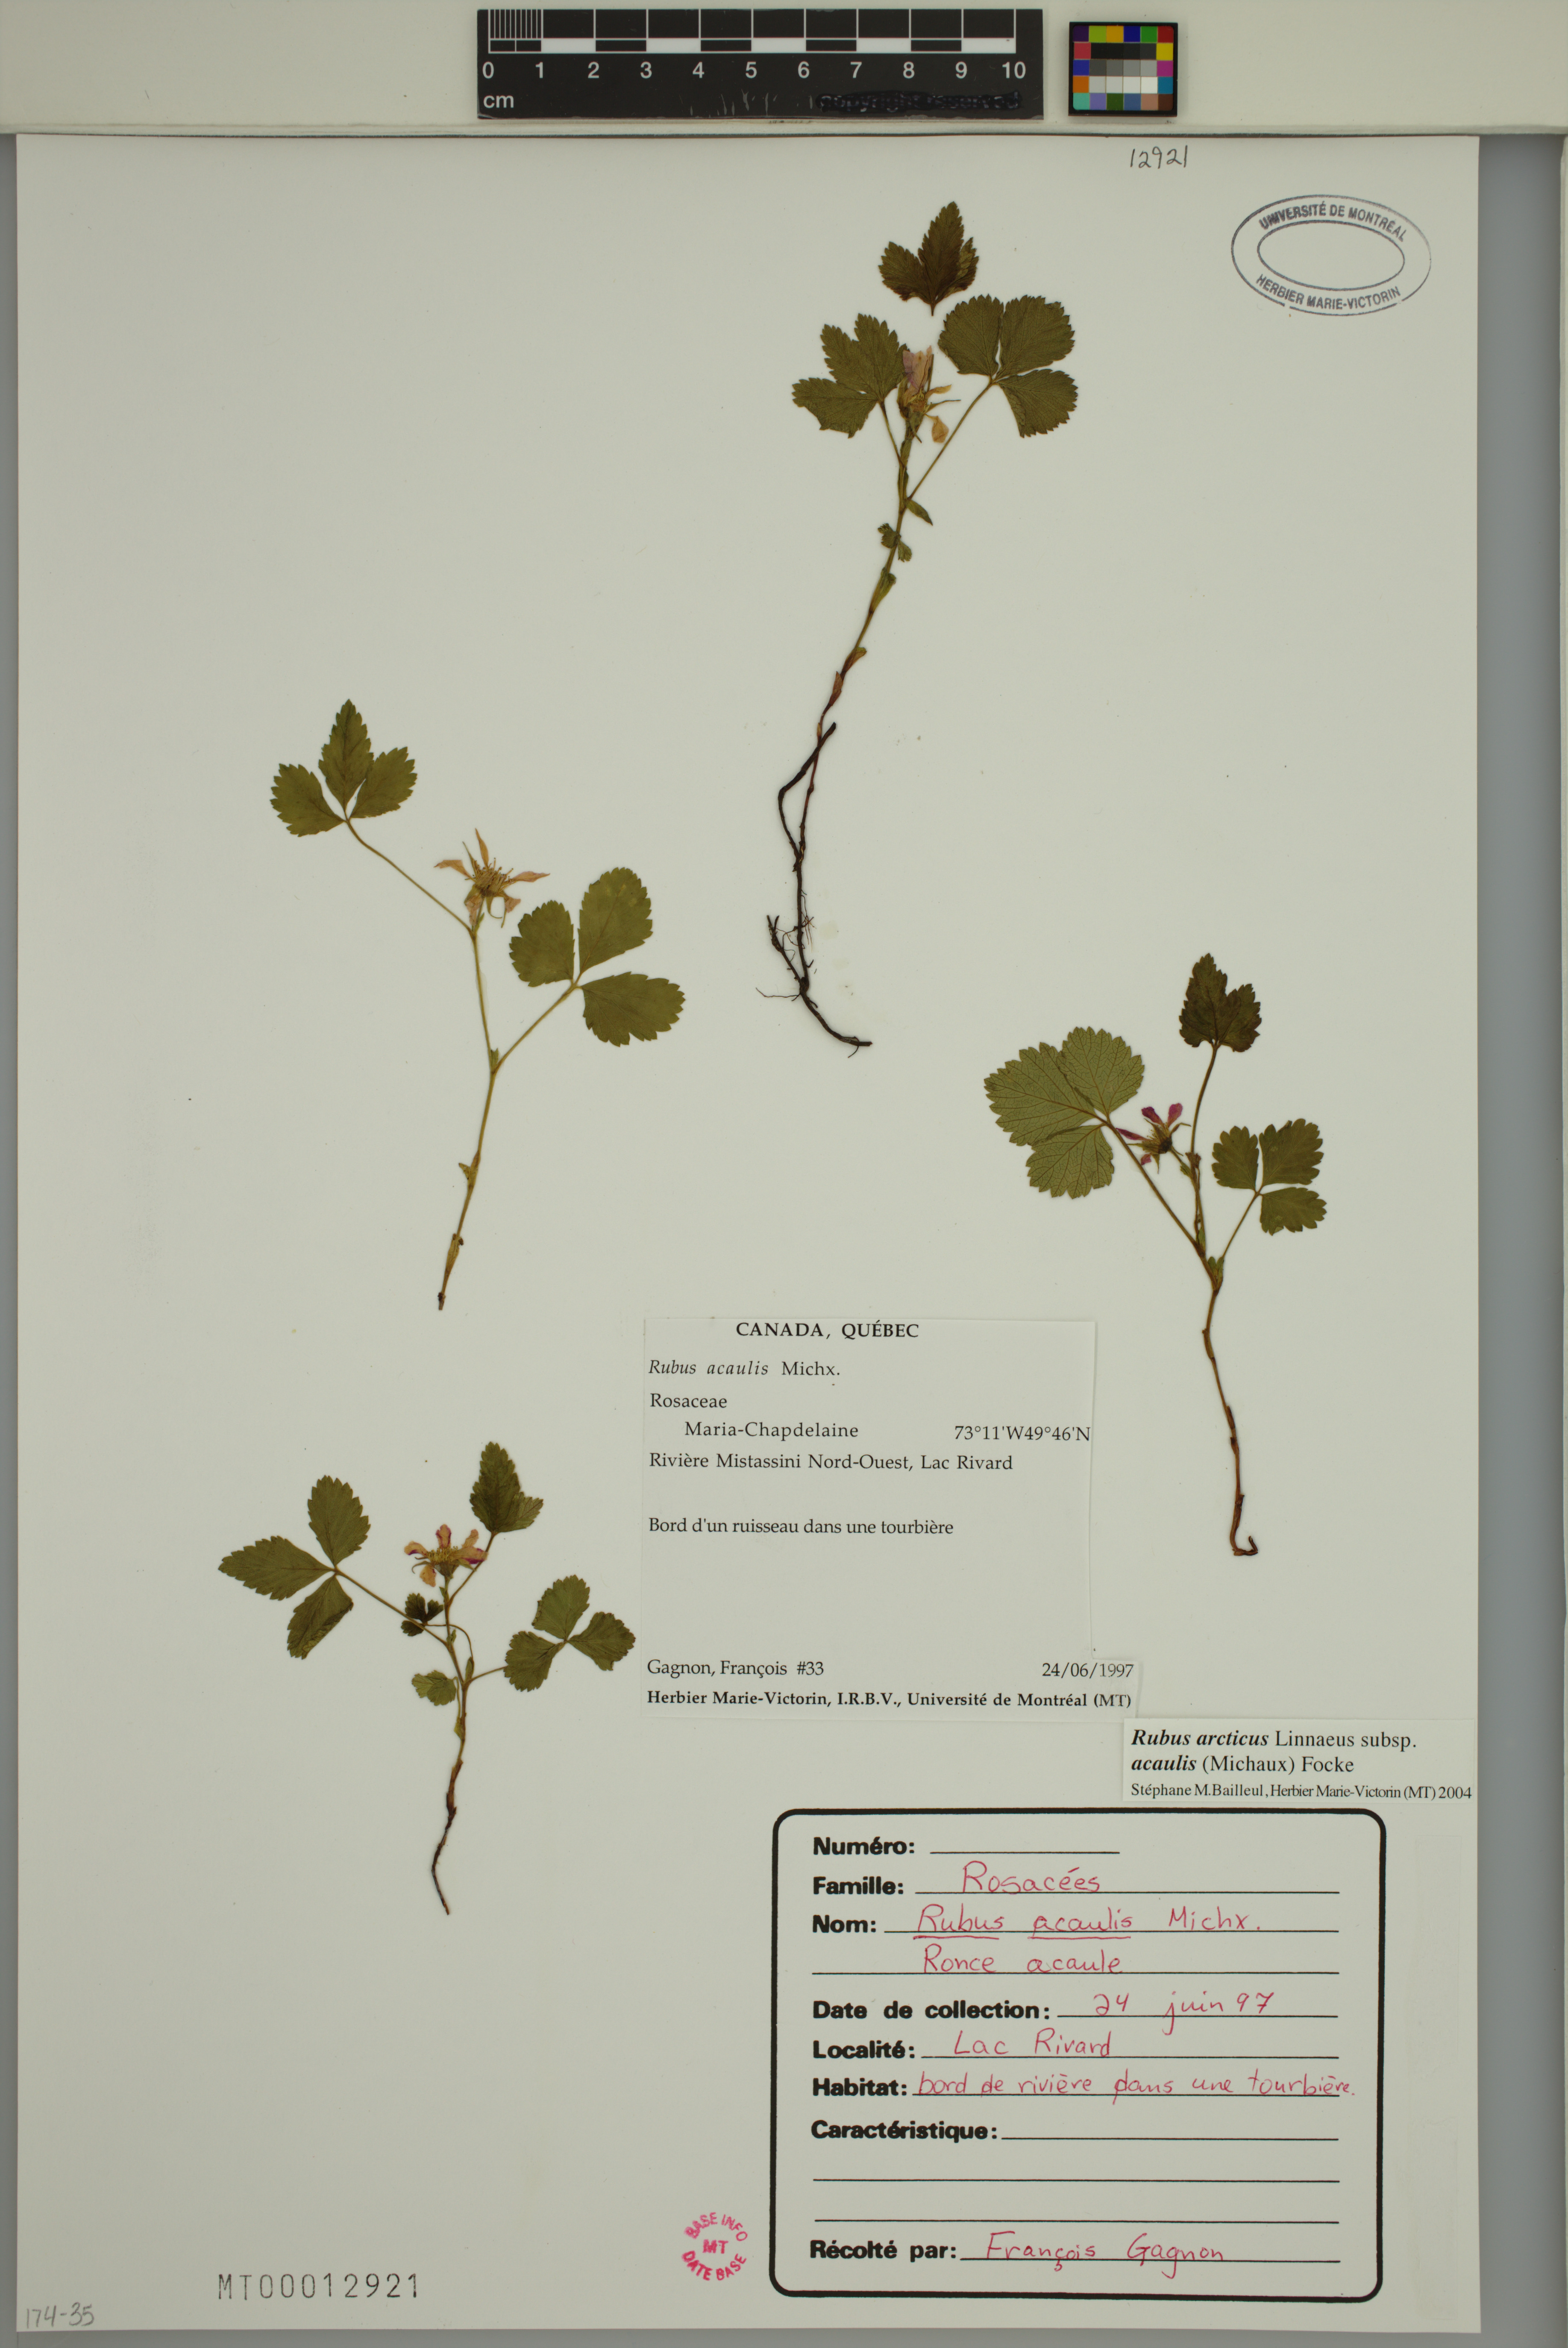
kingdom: Plantae
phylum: Tracheophyta
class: Magnoliopsida
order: Rosales
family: Rosaceae
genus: Rubus
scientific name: Rubus arcticus
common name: Arctic bramble
